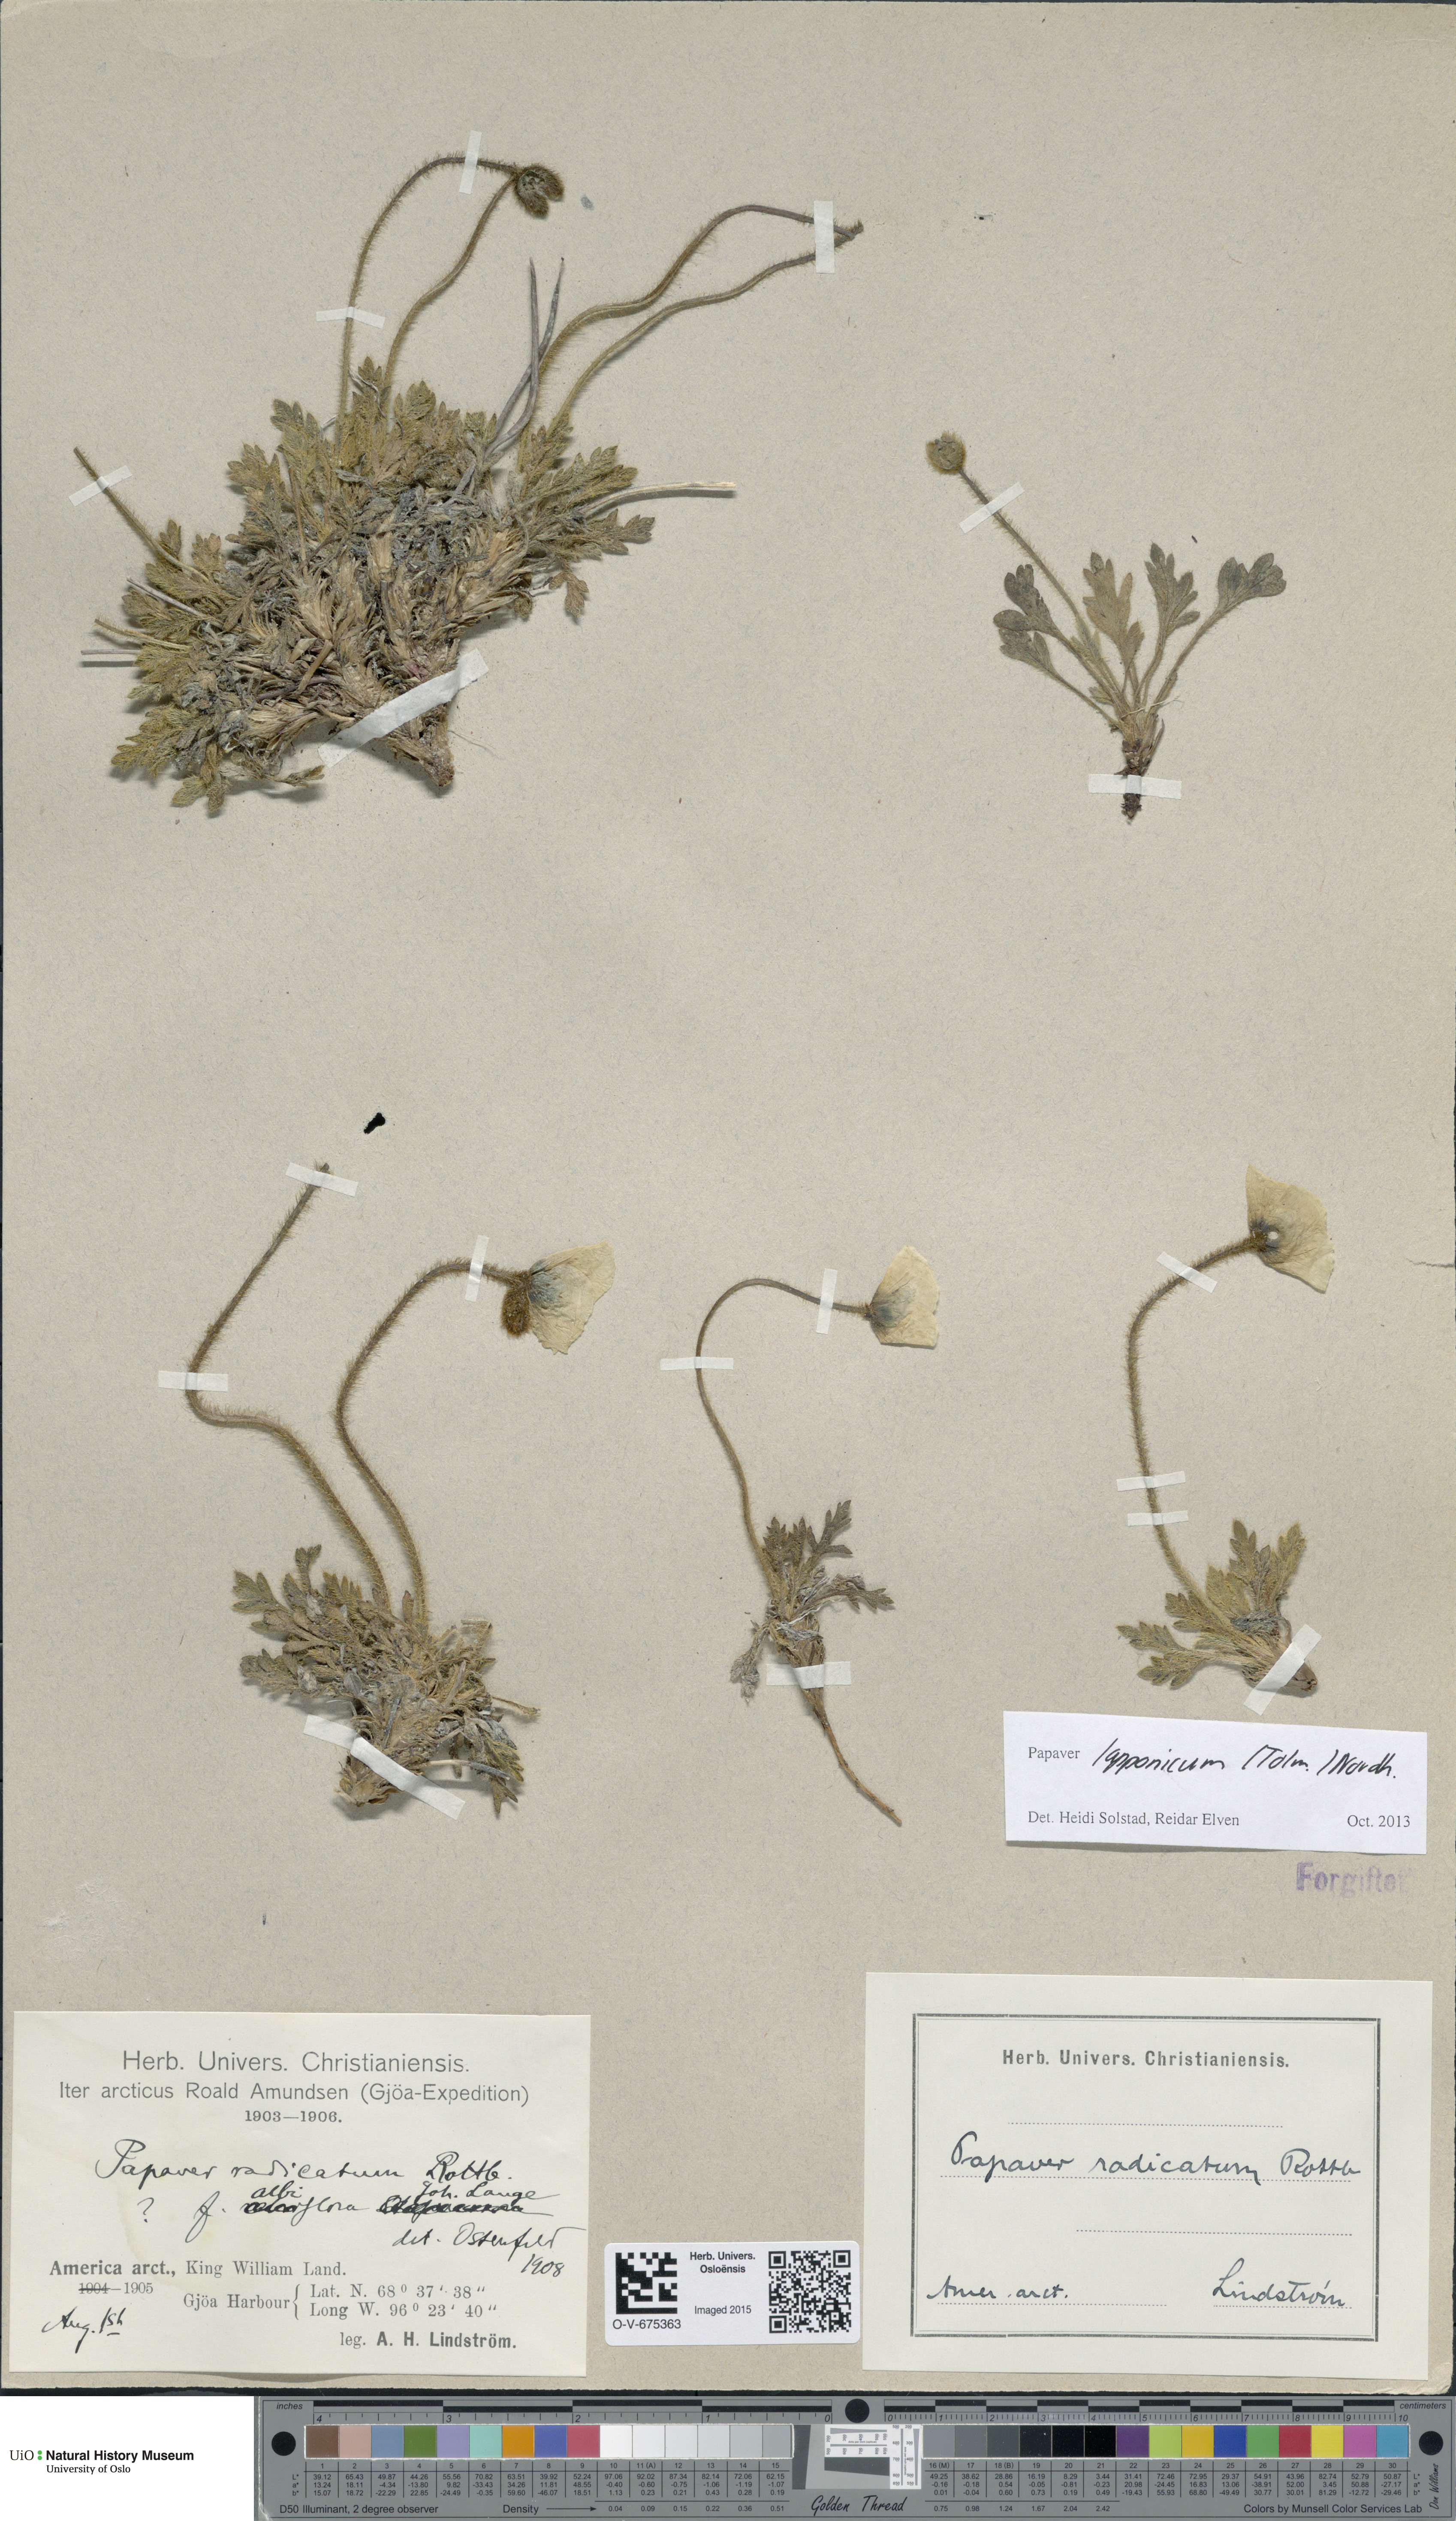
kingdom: Plantae
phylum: Tracheophyta
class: Magnoliopsida
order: Ranunculales
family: Papaveraceae
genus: Papaver
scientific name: Papaver radicatum
